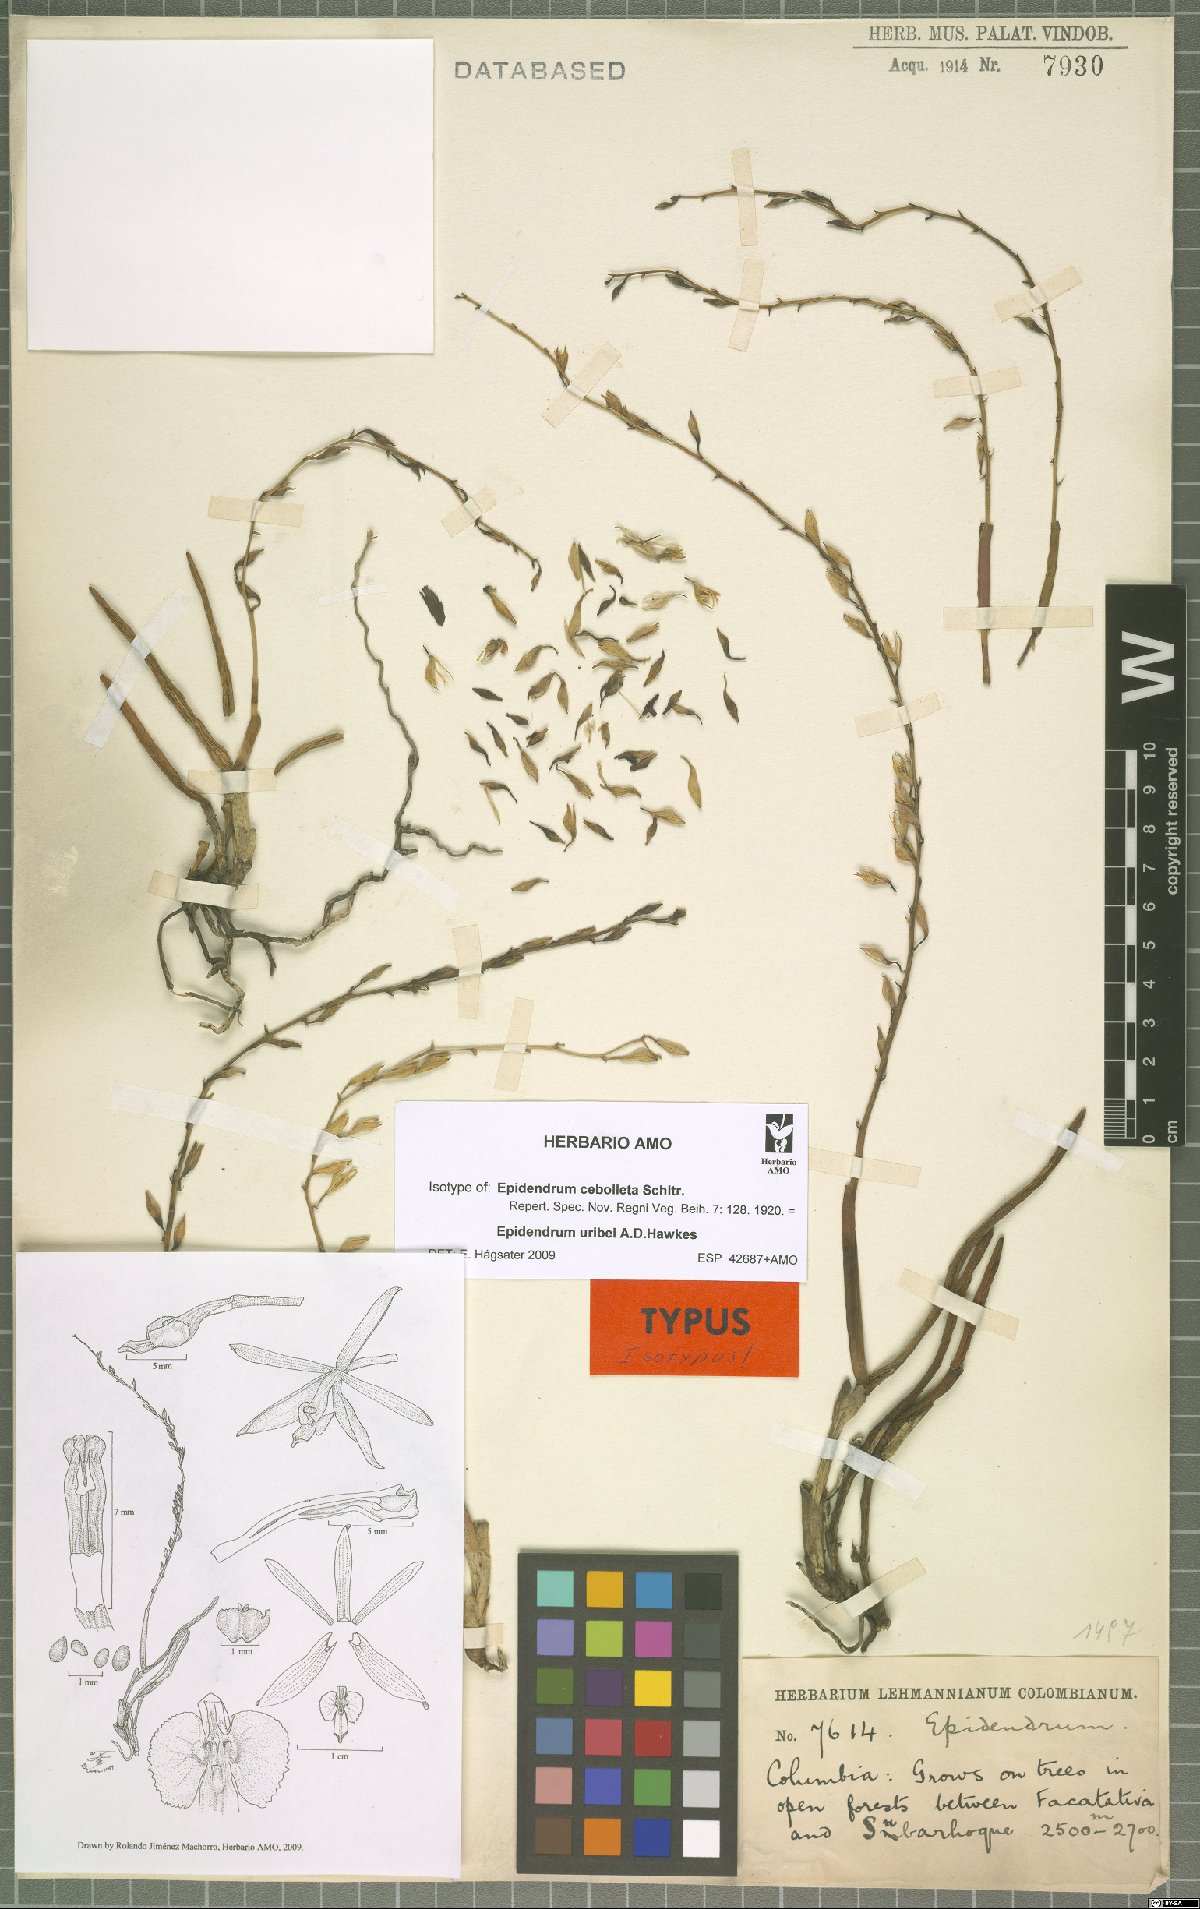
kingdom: Plantae
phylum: Tracheophyta
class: Liliopsida
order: Asparagales
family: Orchidaceae
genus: Epidendrum
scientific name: Epidendrum uribei
